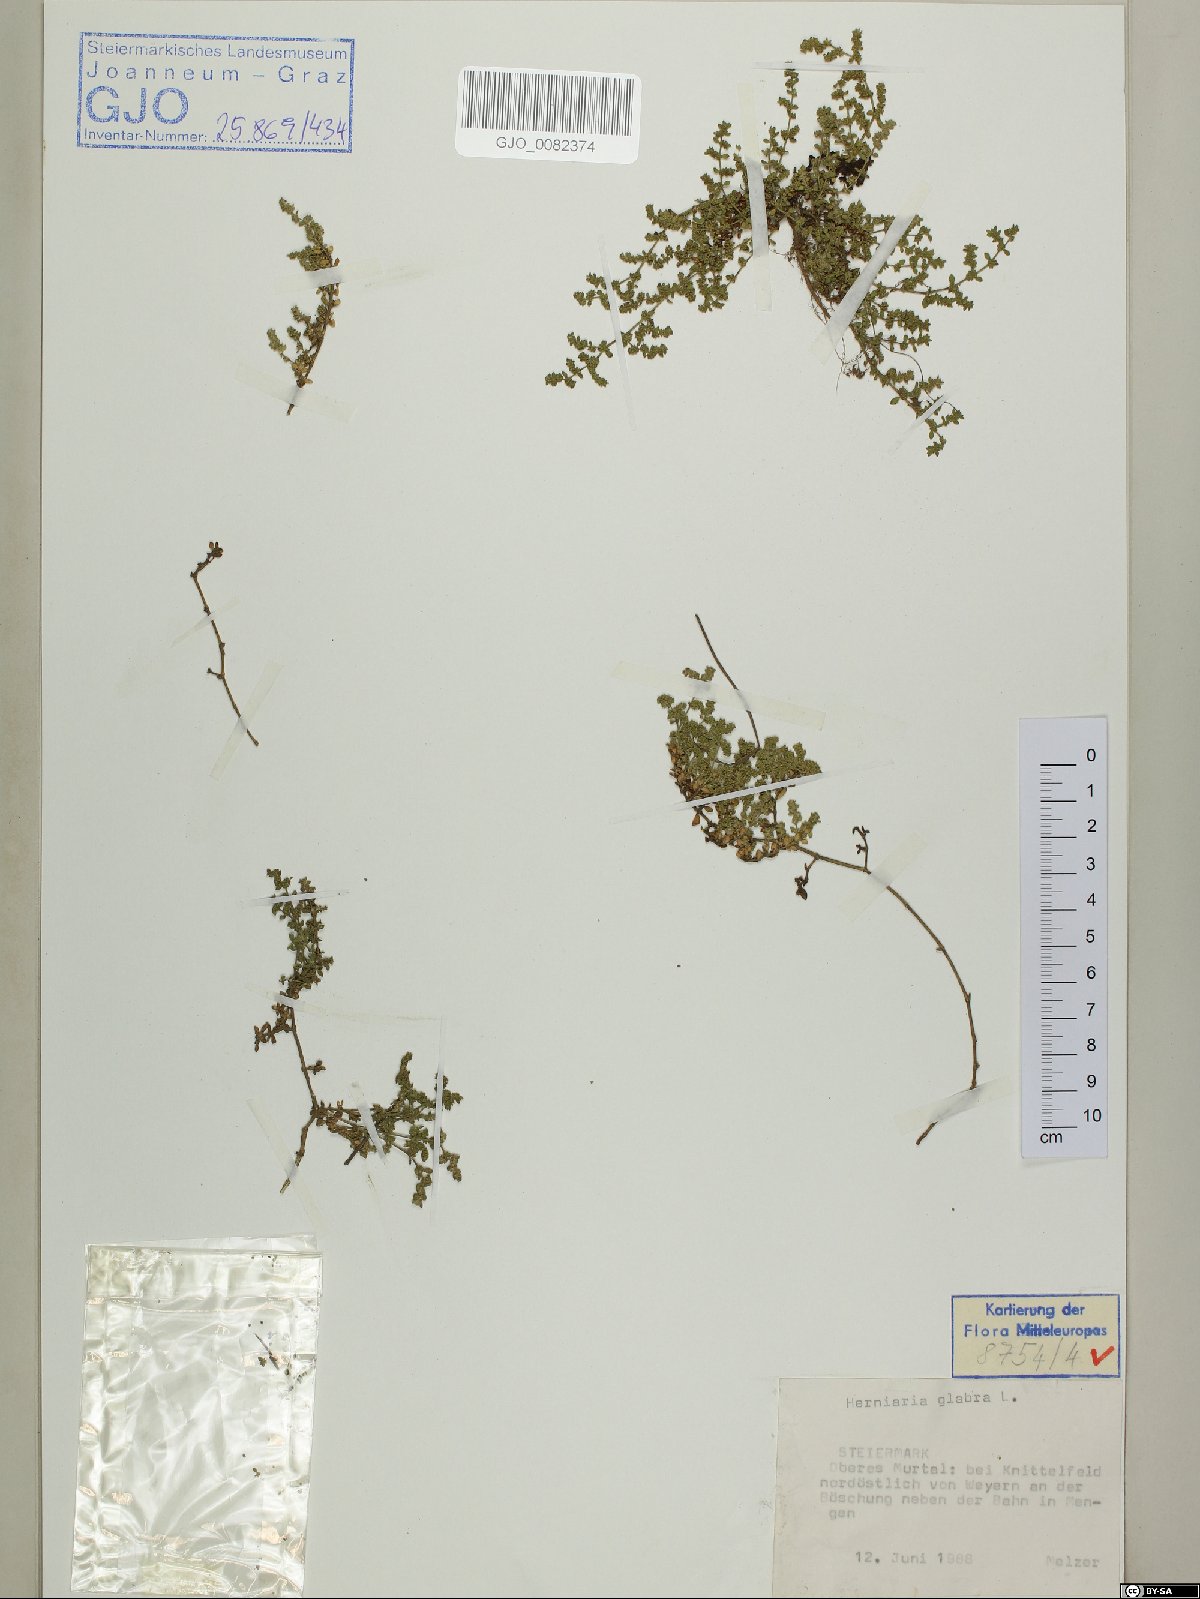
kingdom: Plantae
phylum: Tracheophyta
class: Magnoliopsida
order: Caryophyllales
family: Caryophyllaceae
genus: Herniaria
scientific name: Herniaria glabra
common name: Smooth rupturewort
